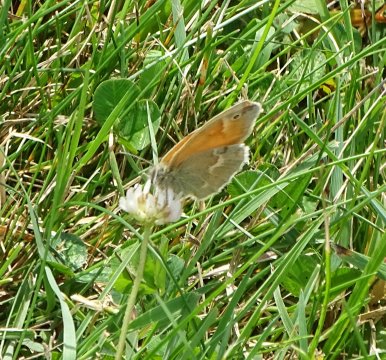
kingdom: Animalia
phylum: Arthropoda
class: Insecta
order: Lepidoptera
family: Nymphalidae
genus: Coenonympha
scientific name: Coenonympha tullia
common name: Large Heath
